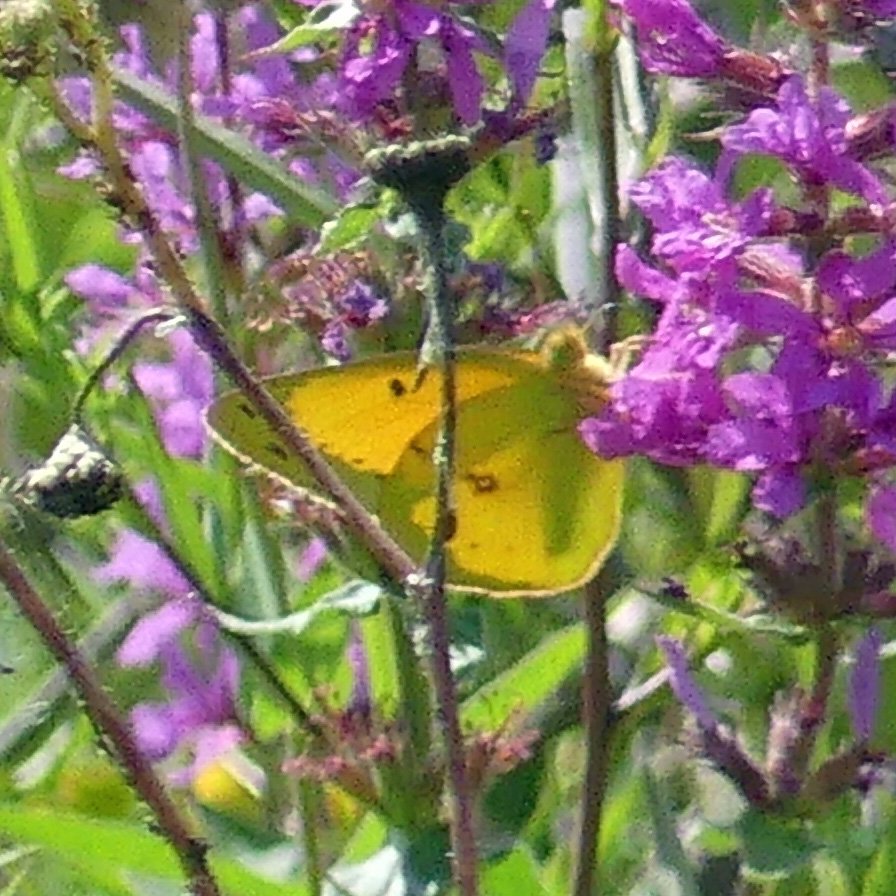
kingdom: Animalia
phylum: Arthropoda
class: Insecta
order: Lepidoptera
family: Pieridae
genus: Colias
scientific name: Colias eurytheme
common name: Orange Sulphur
